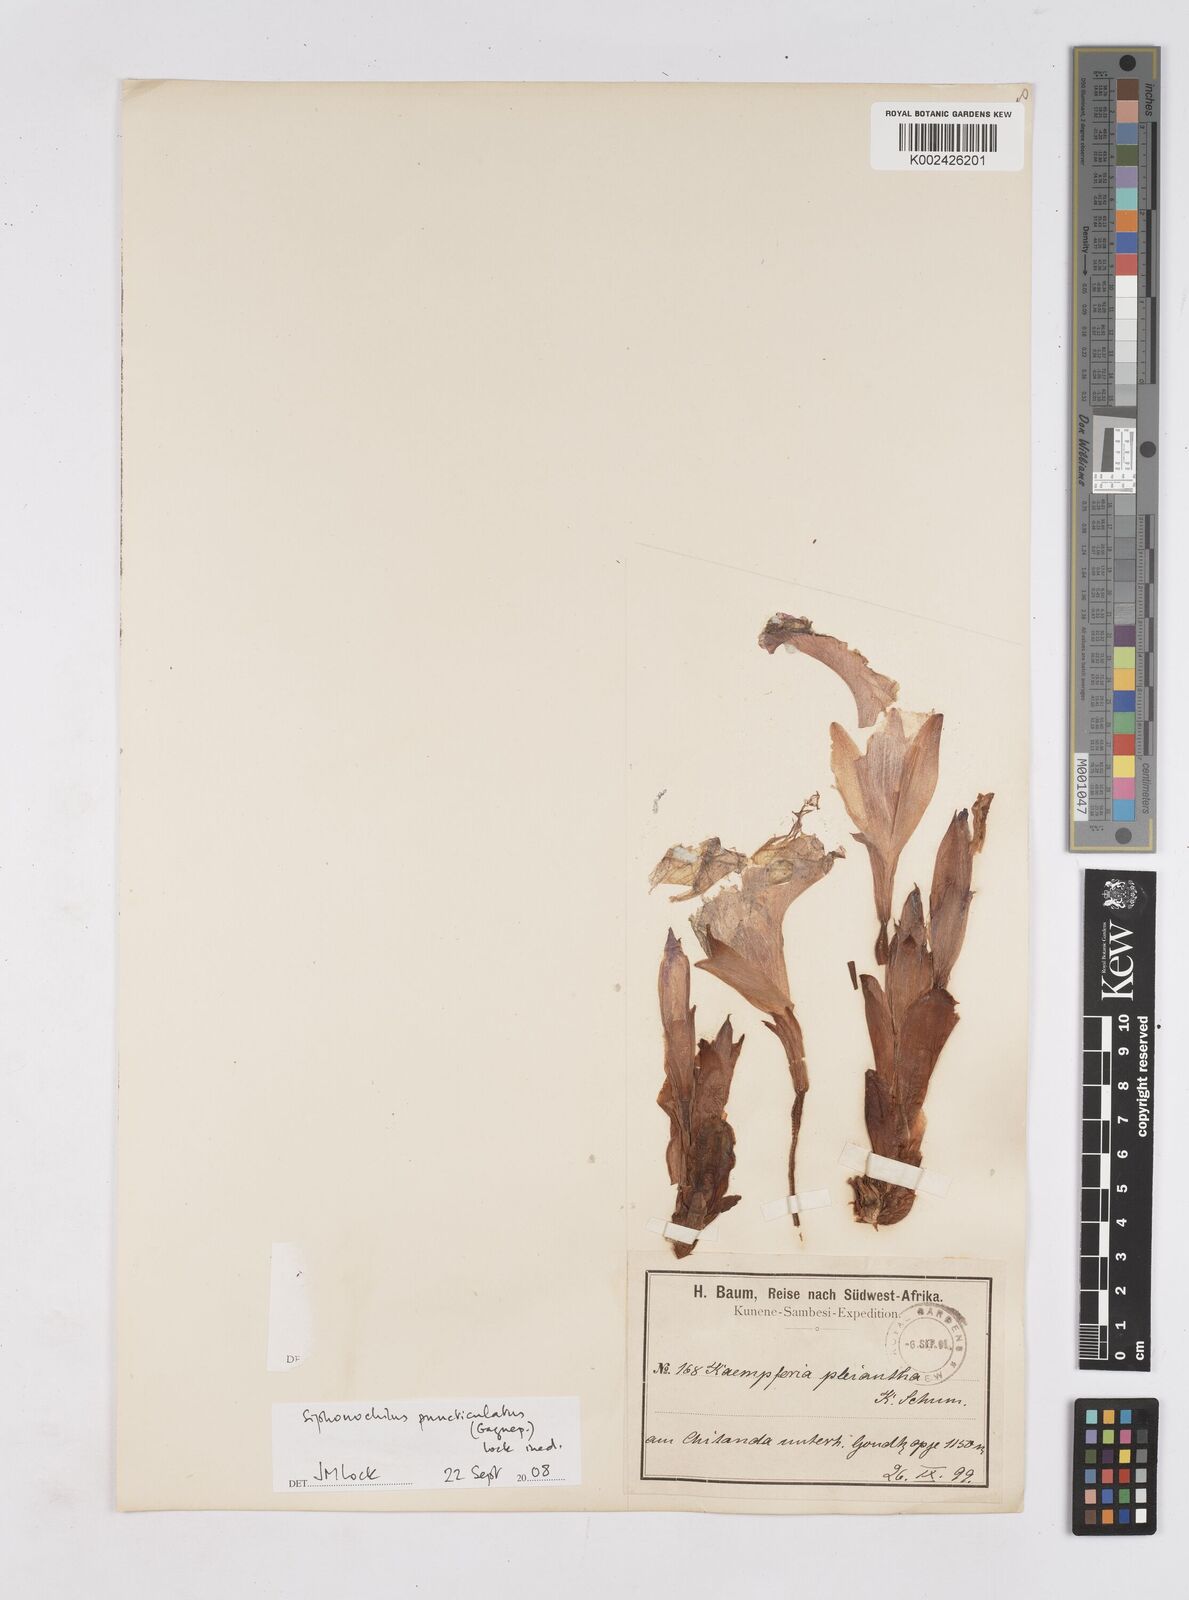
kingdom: Plantae
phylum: Tracheophyta
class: Liliopsida
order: Zingiberales
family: Zingiberaceae
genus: Siphonochilus
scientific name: Siphonochilus puncticulatus
